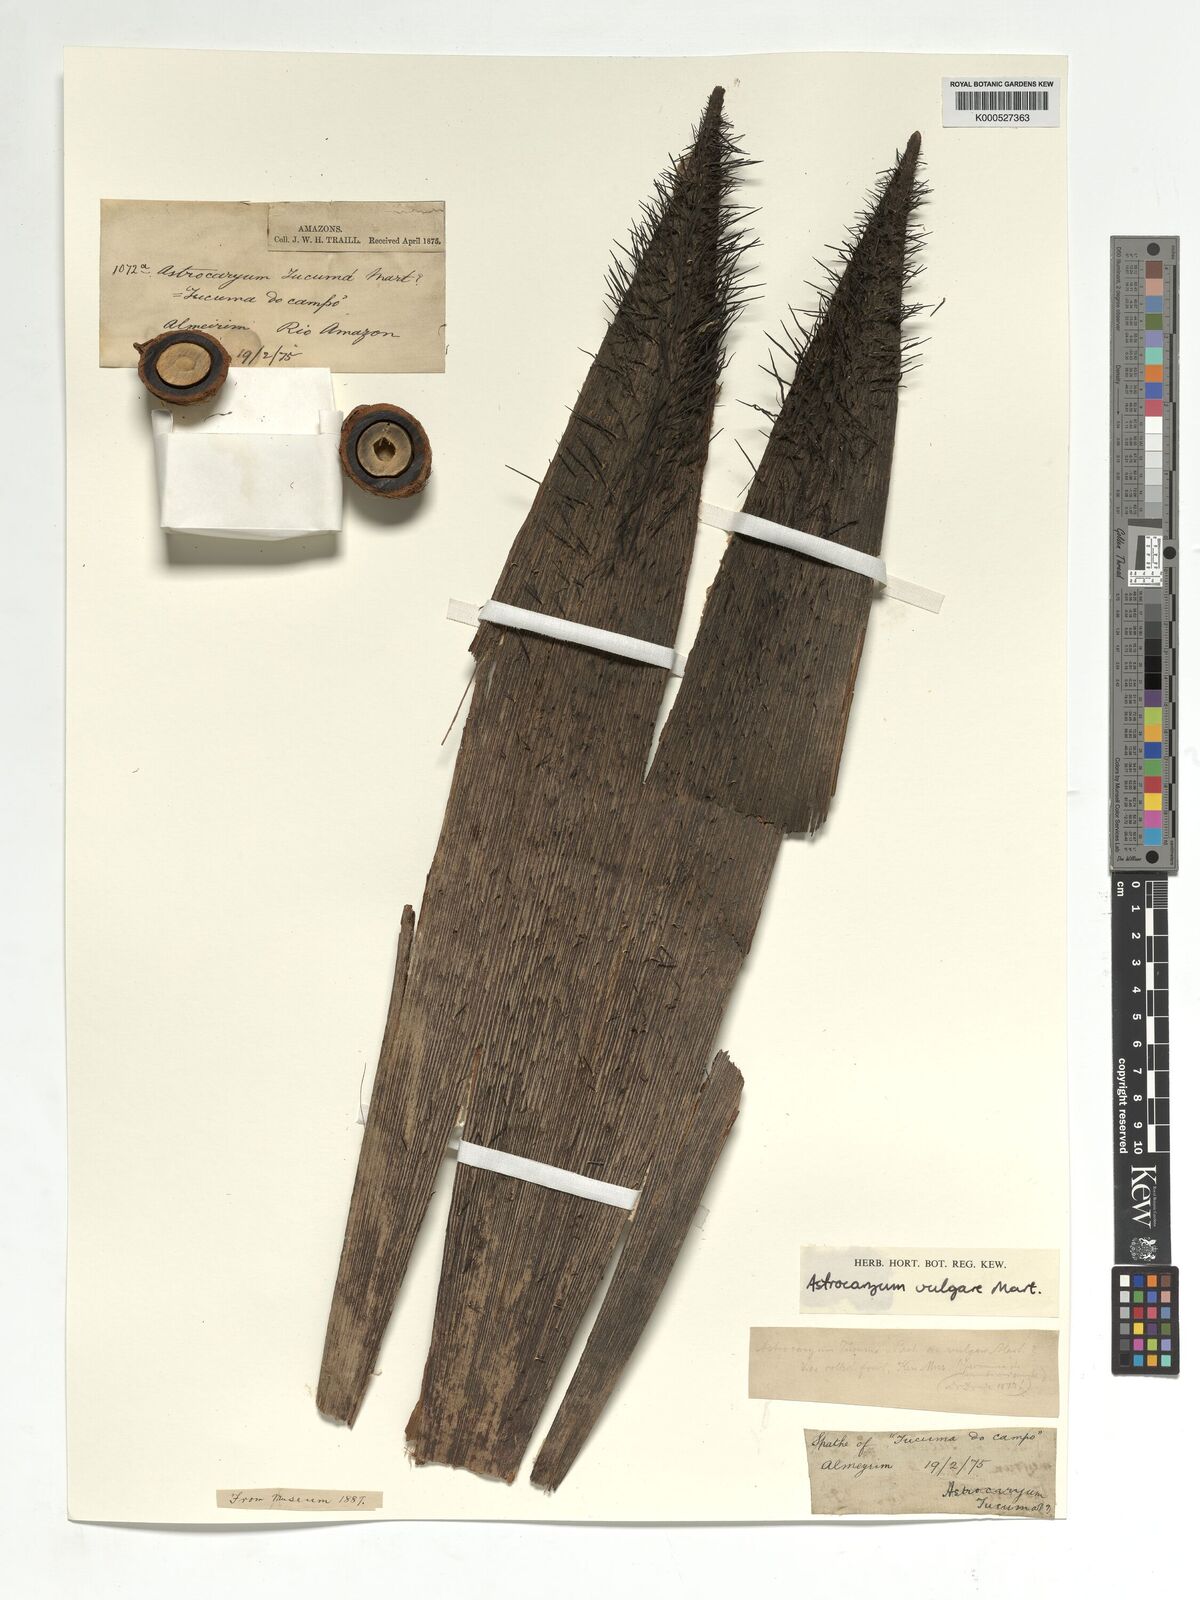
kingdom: Plantae
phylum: Tracheophyta
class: Liliopsida
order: Arecales
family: Arecaceae
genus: Astrocaryum
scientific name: Astrocaryum vulgare
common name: Tucum palm
